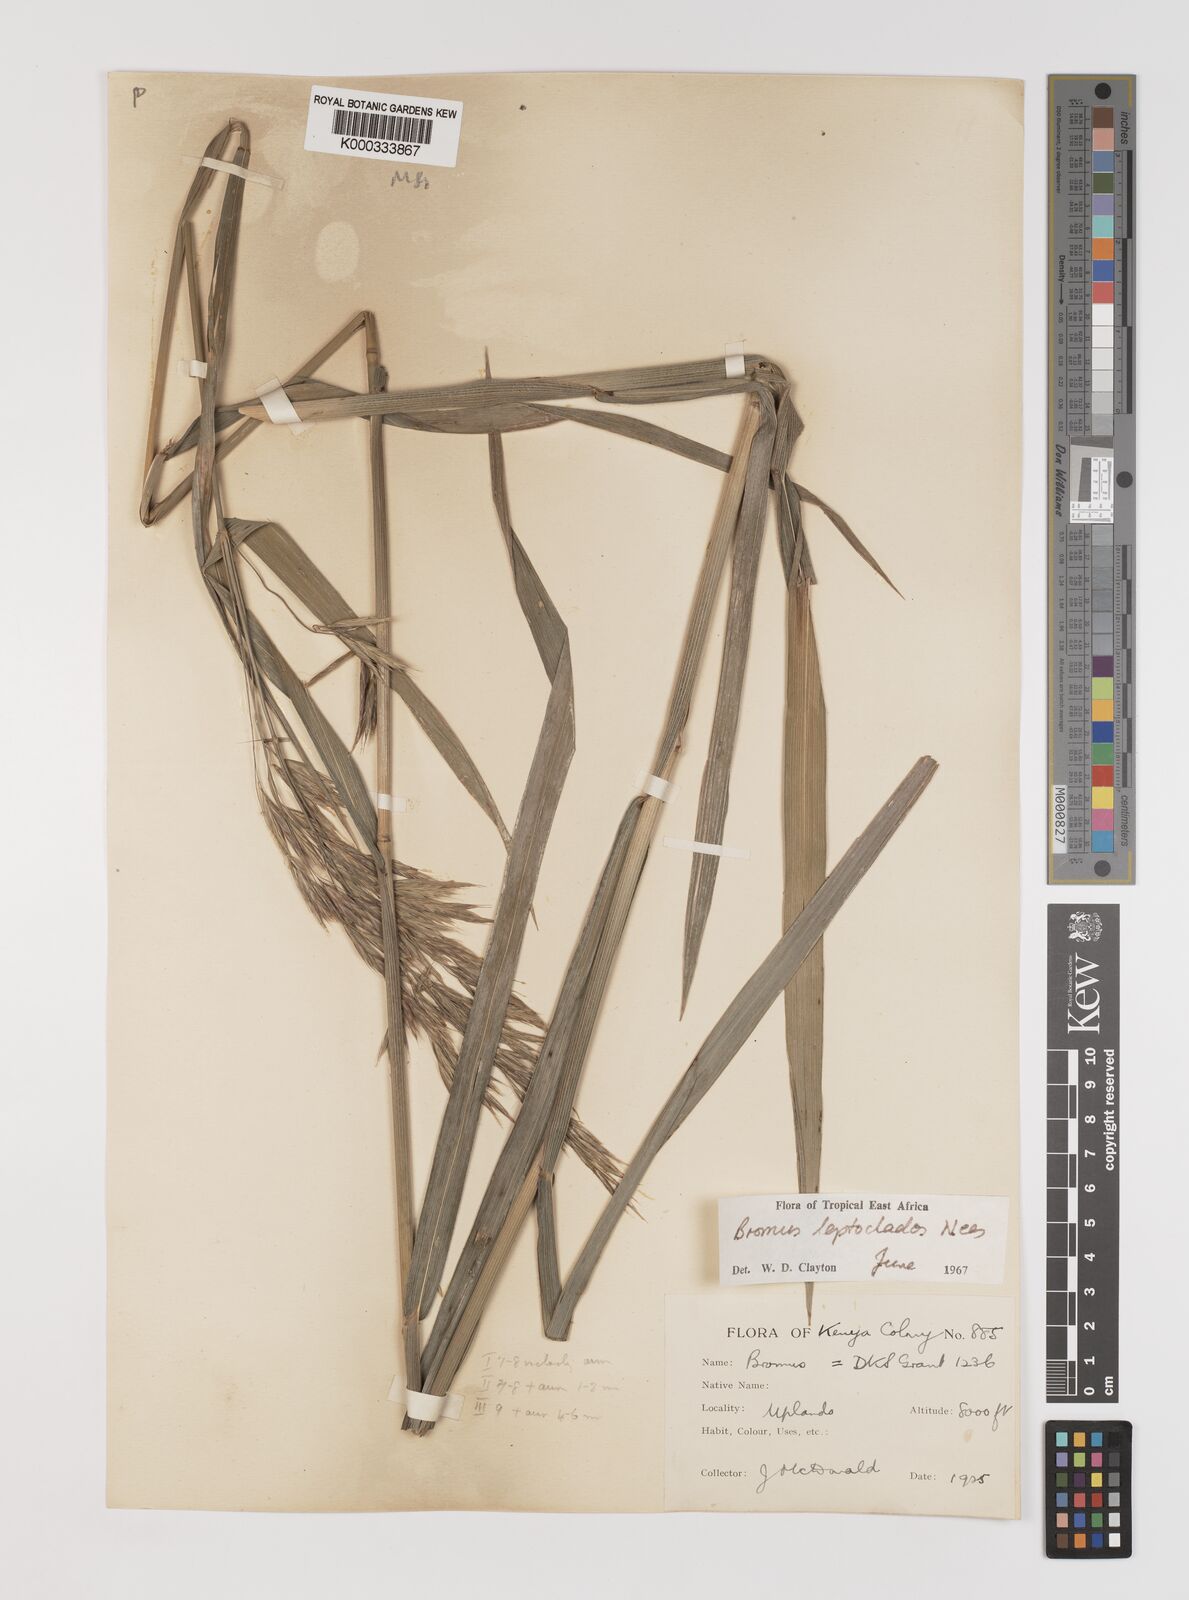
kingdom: Plantae
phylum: Tracheophyta
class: Liliopsida
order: Poales
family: Poaceae
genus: Bromus
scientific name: Bromus leptoclados
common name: Mountain bromegrass
